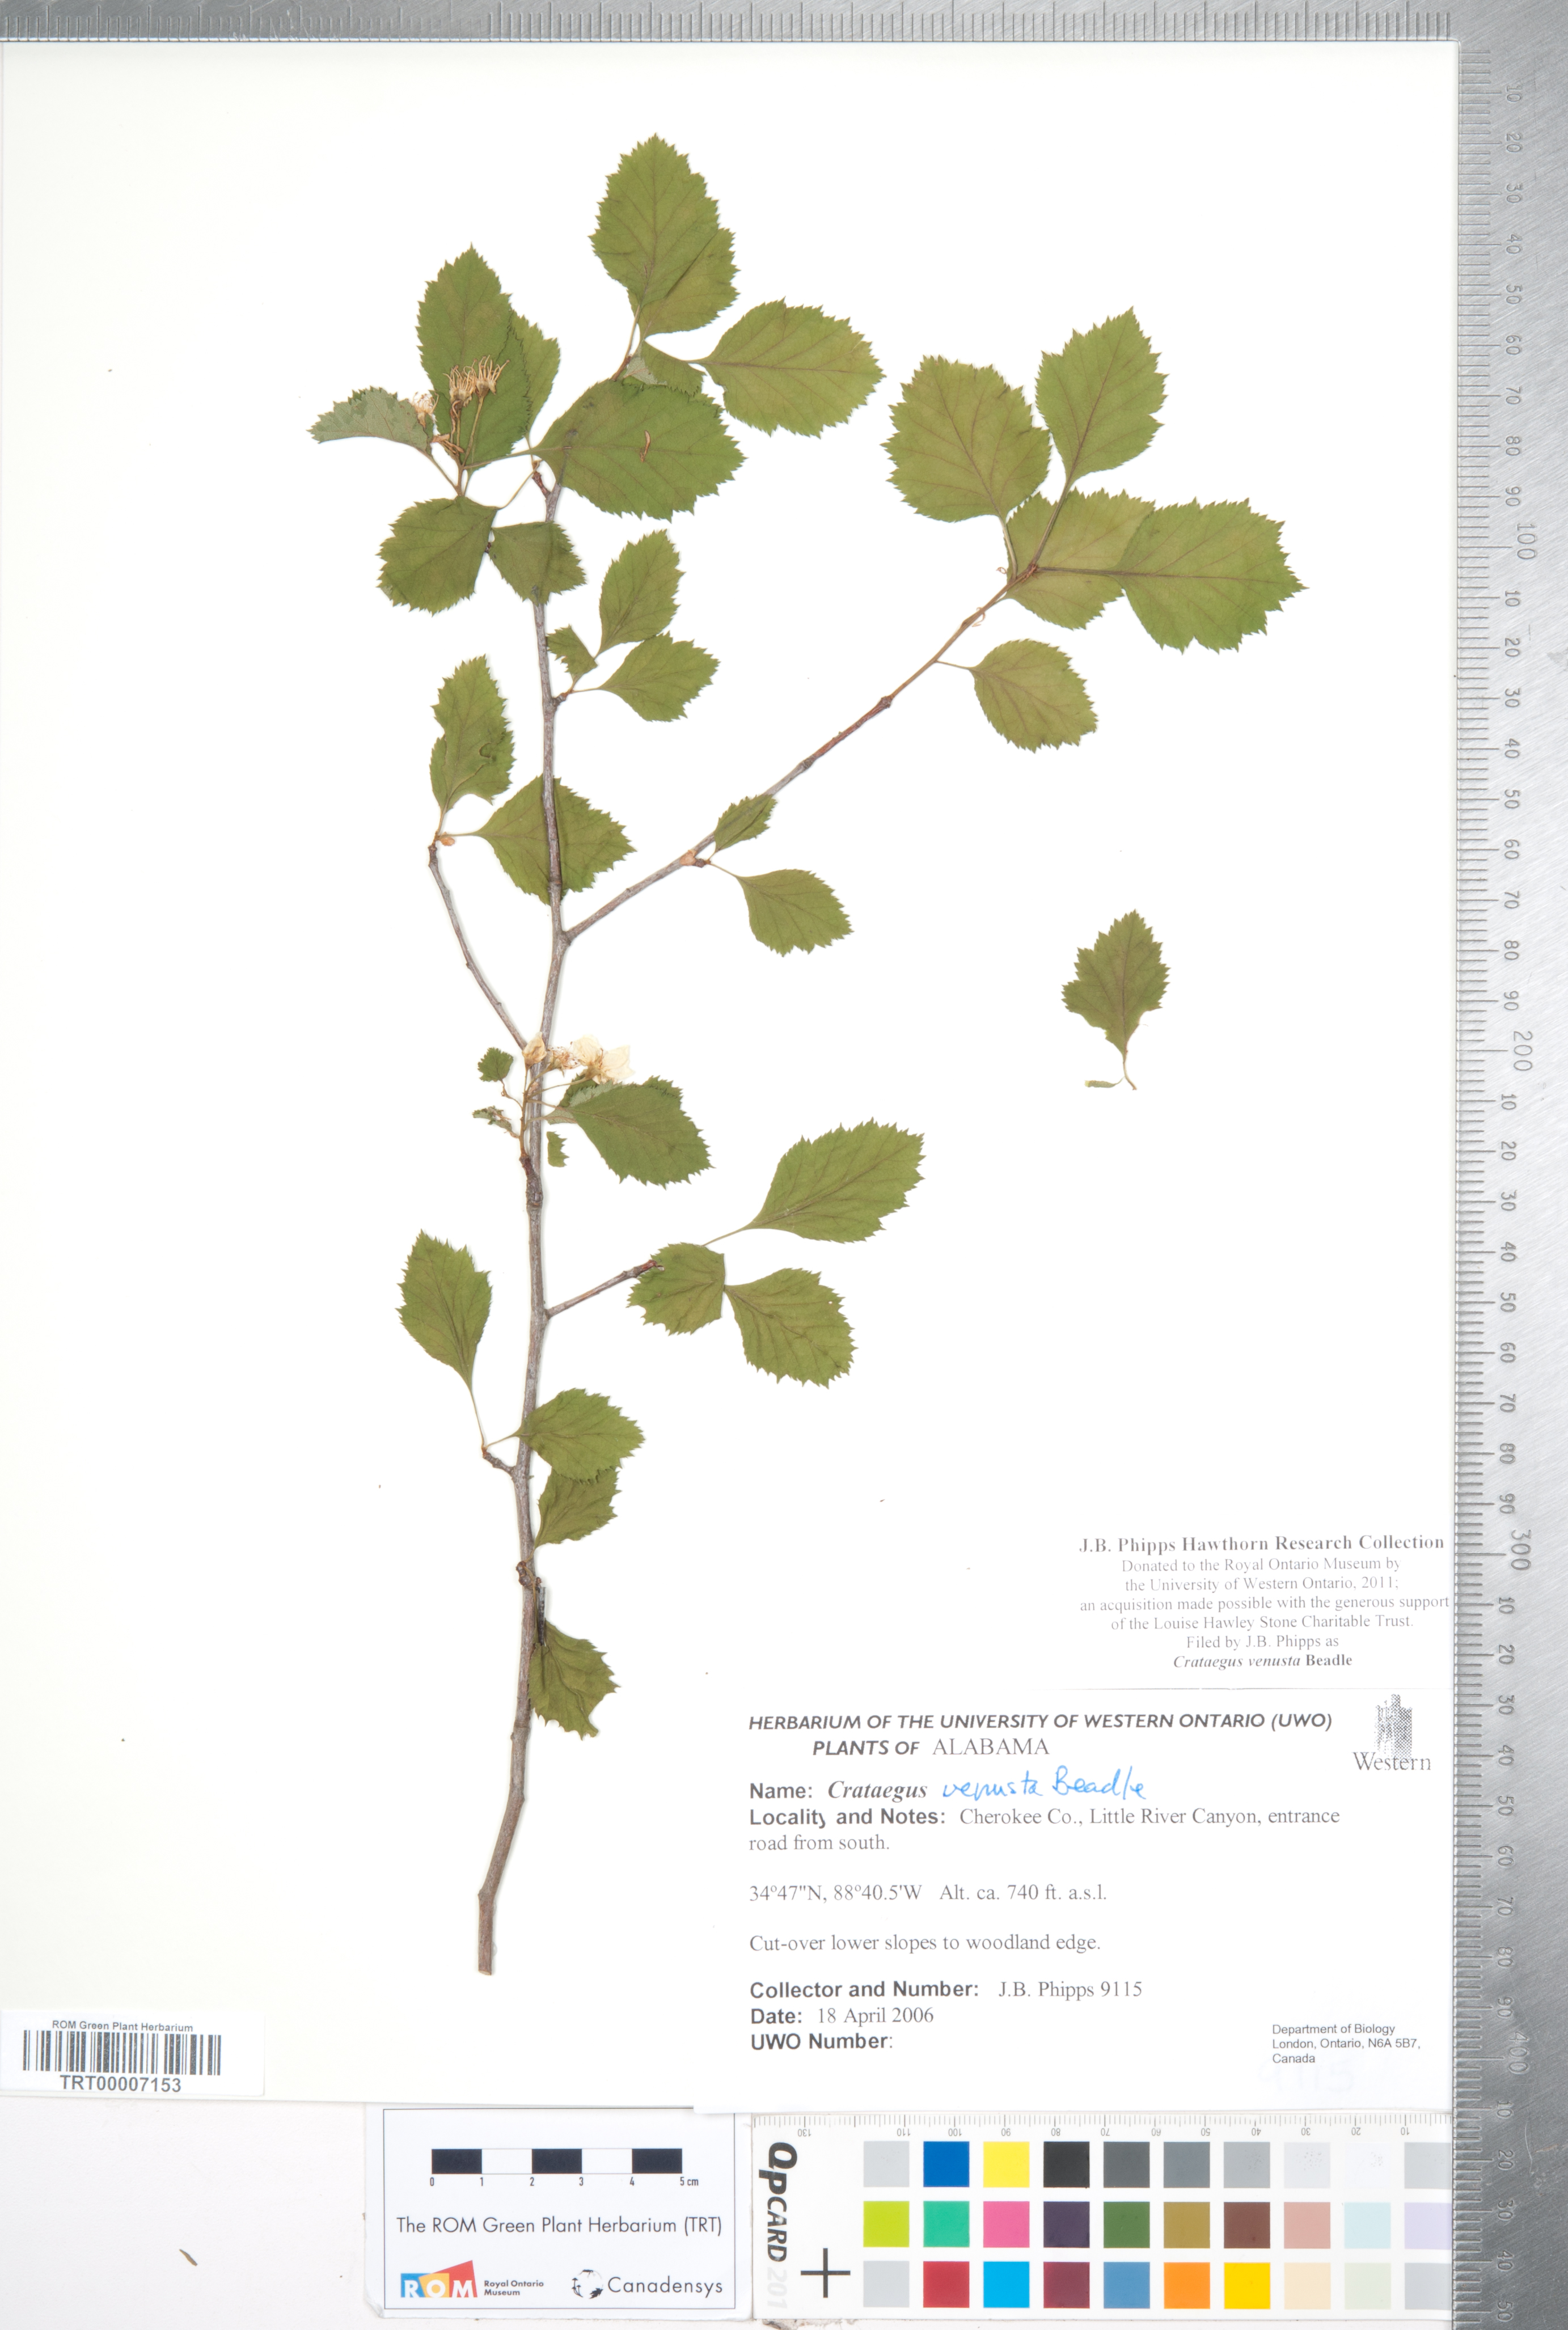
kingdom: Plantae
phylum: Tracheophyta
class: Magnoliopsida
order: Rosales
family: Rosaceae
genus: Crataegus
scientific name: Crataegus venusta
